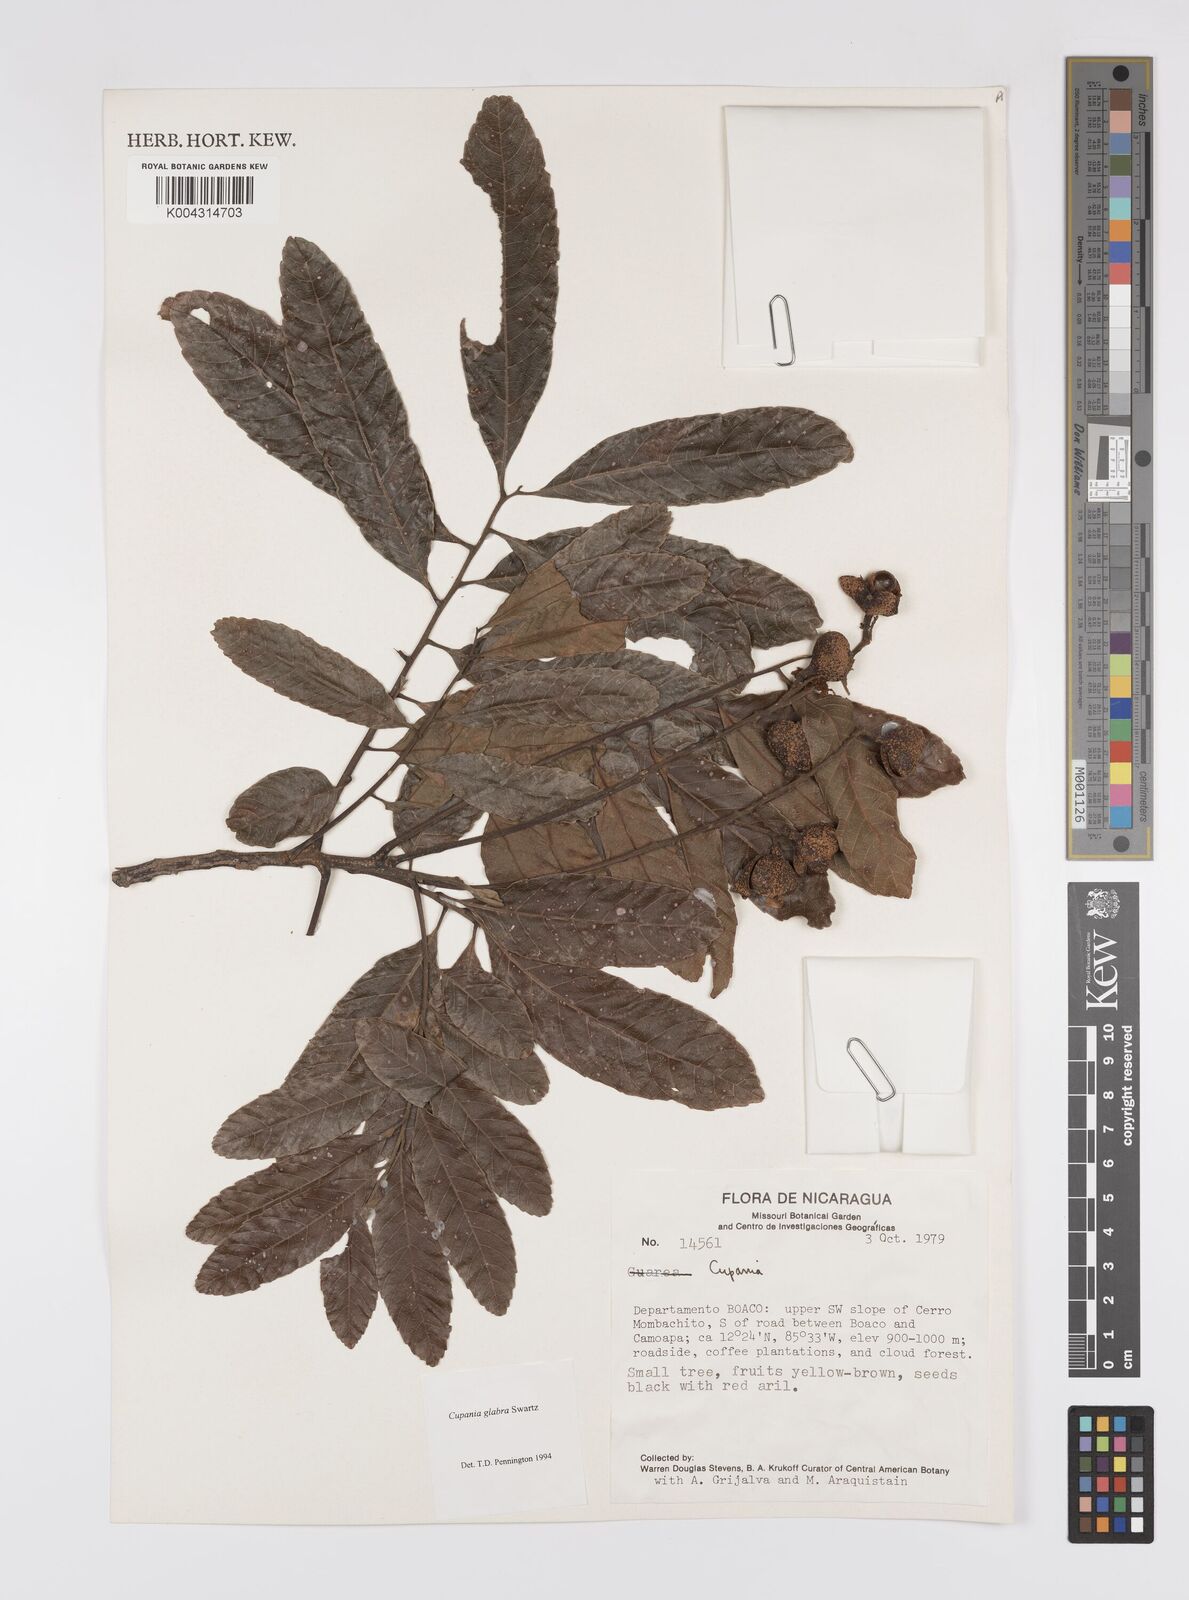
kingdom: Plantae
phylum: Tracheophyta
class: Magnoliopsida
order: Sapindales
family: Sapindaceae
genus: Cupania
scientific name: Cupania
